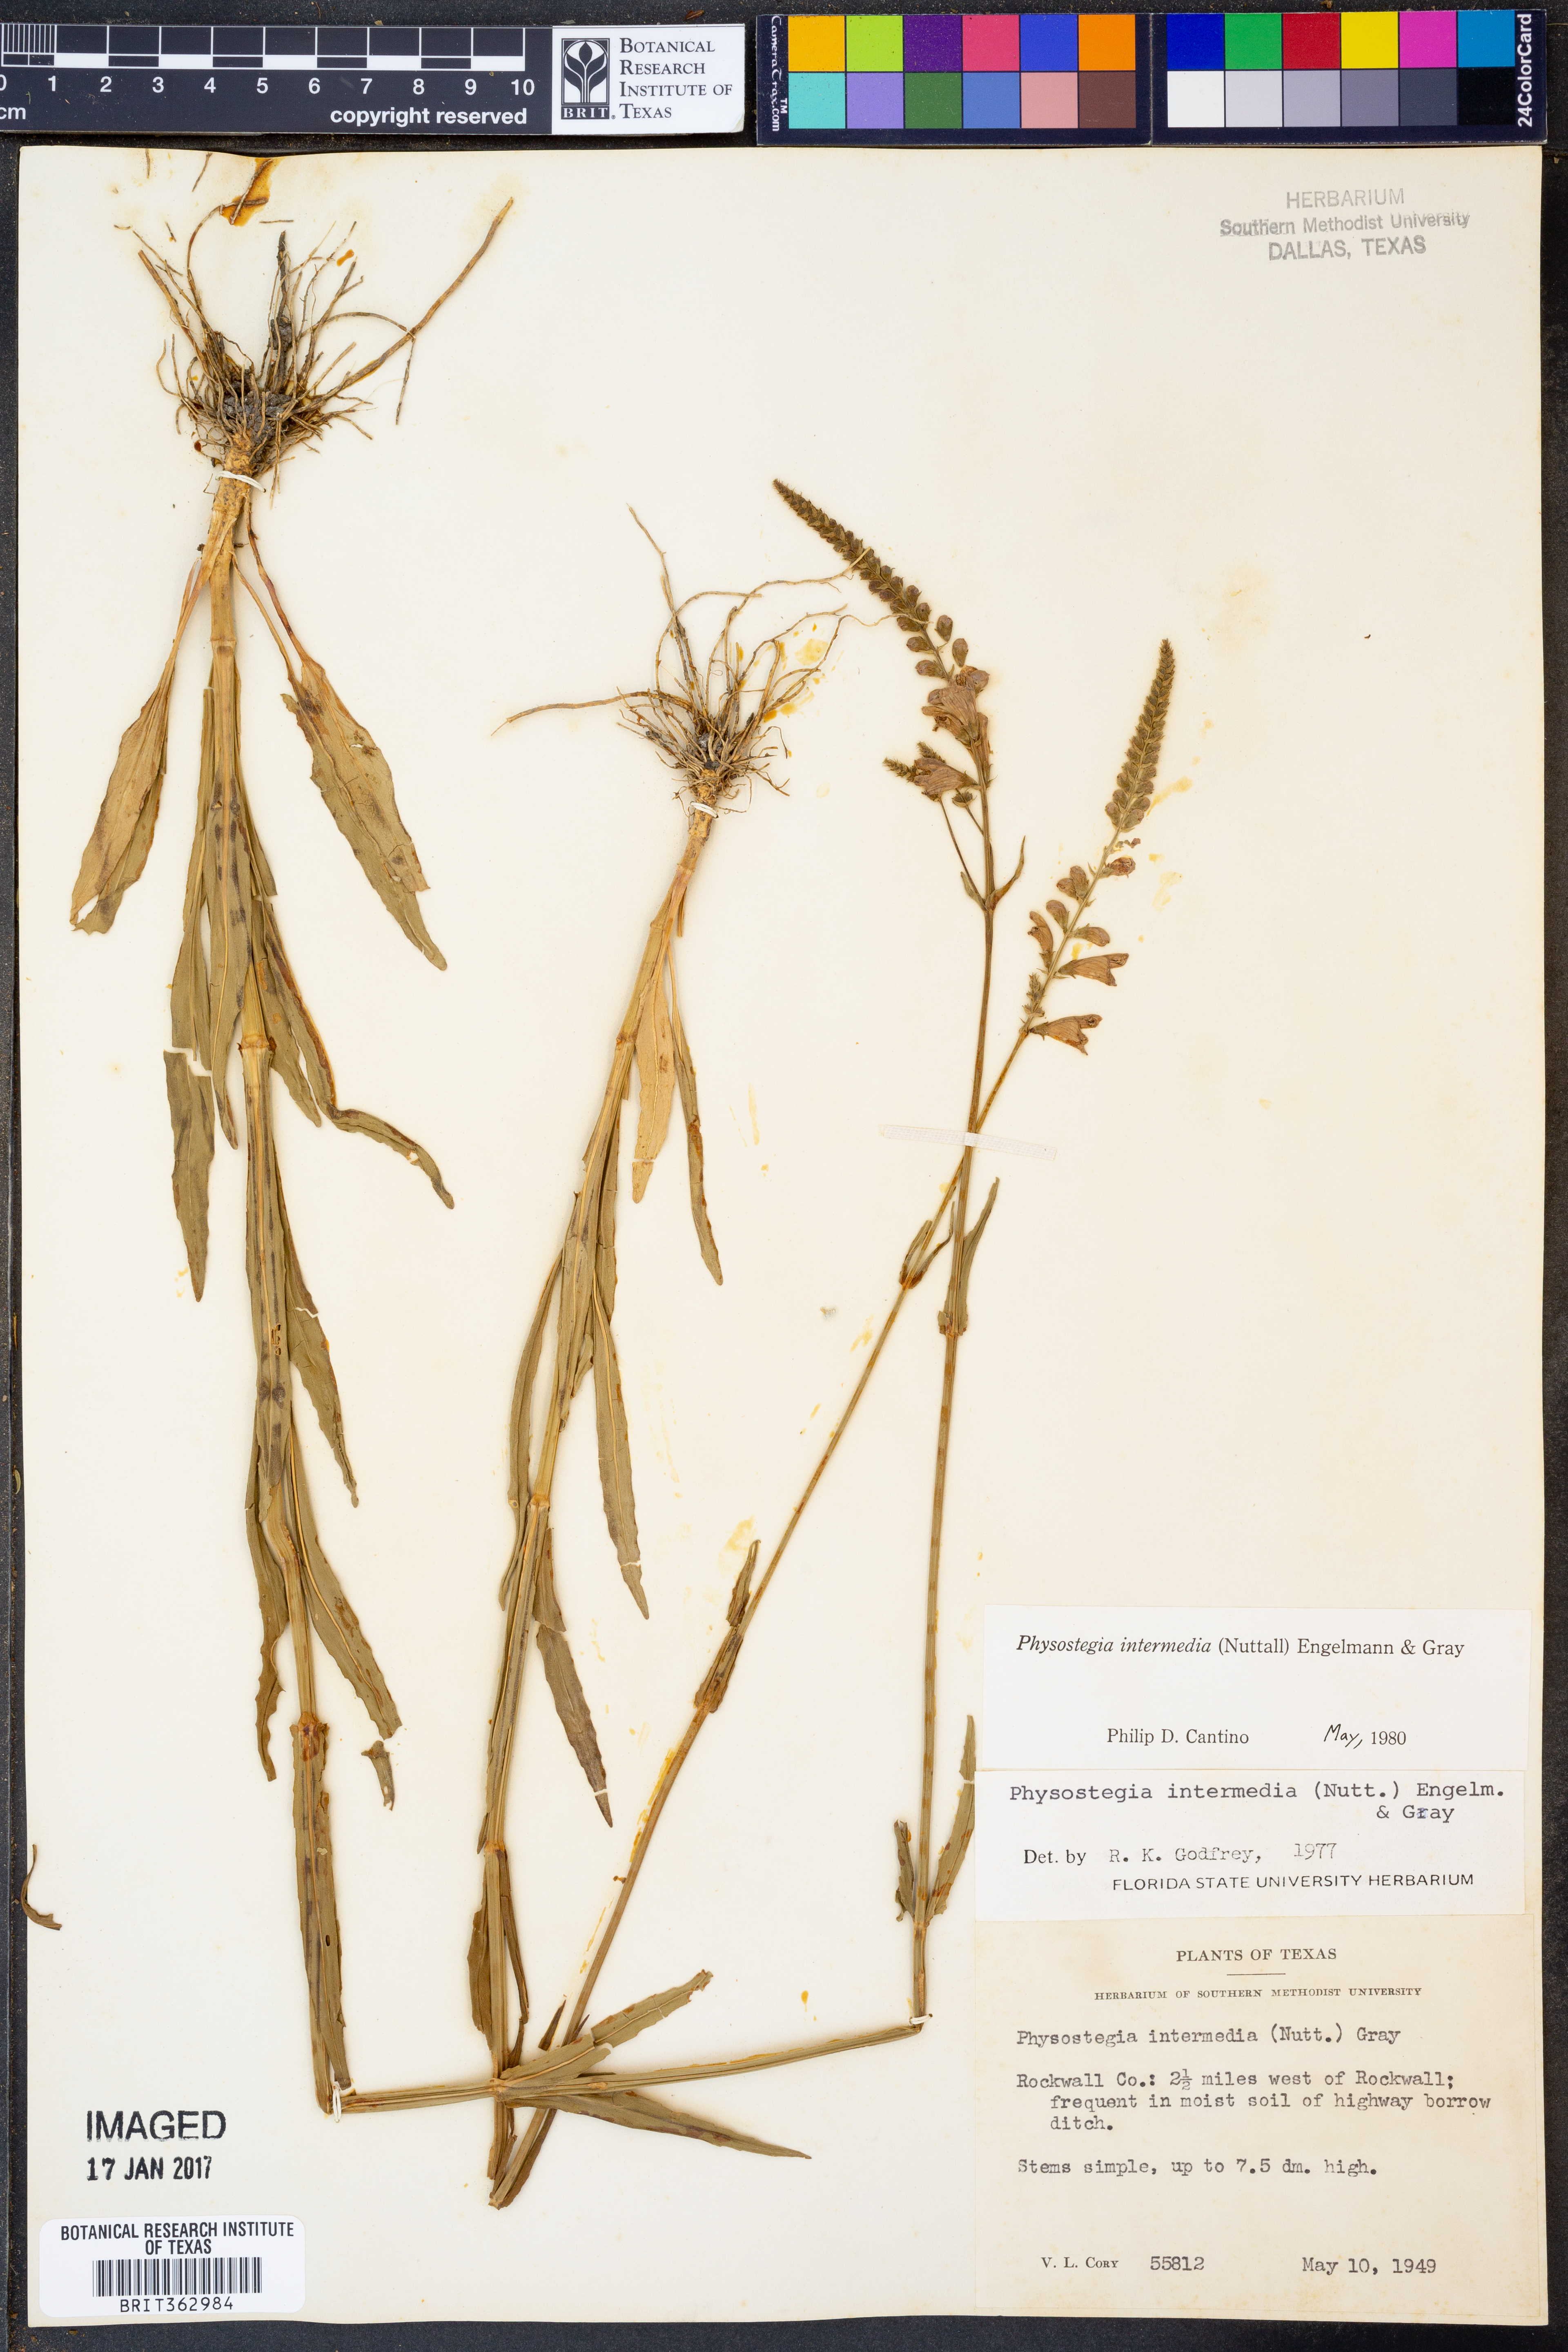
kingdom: Plantae
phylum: Tracheophyta
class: Magnoliopsida
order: Lamiales
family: Lamiaceae
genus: Physostegia
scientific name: Physostegia intermedia
